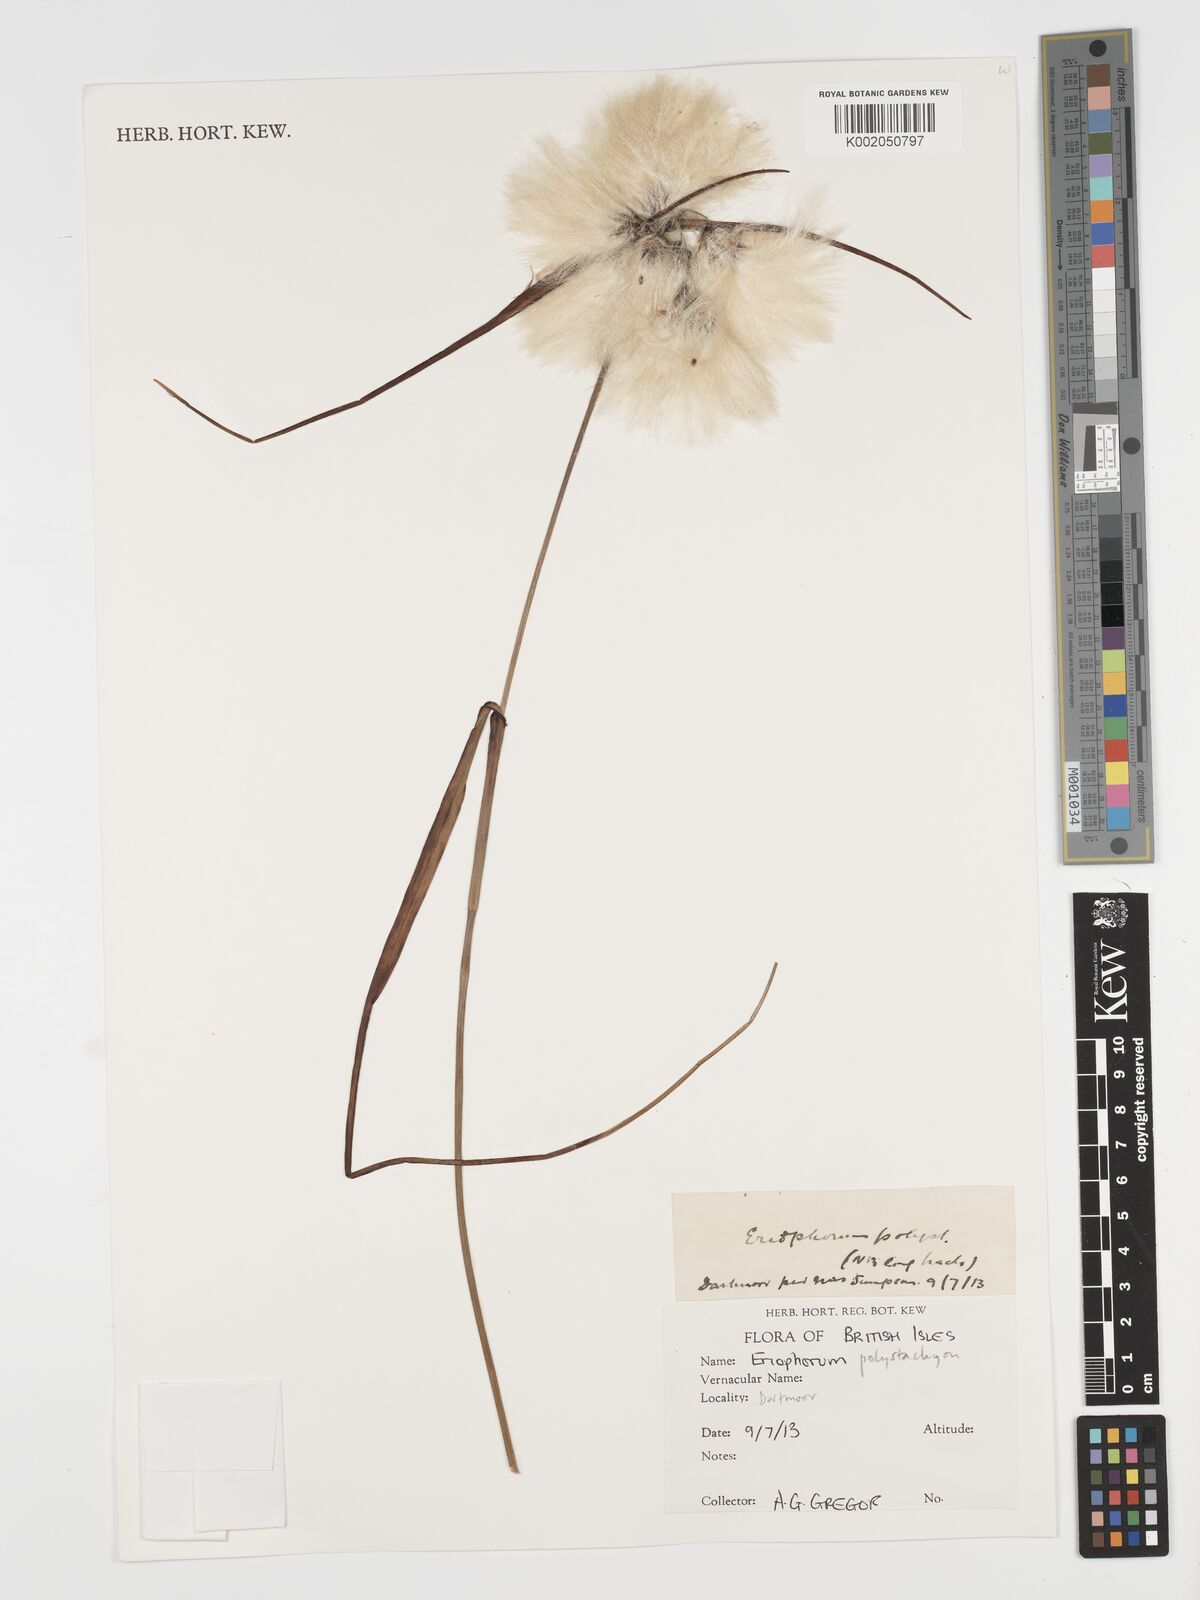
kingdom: Plantae
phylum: Tracheophyta
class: Liliopsida
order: Poales
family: Cyperaceae
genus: Eriophorum
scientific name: Eriophorum angustifolium
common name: Common cottongrass
